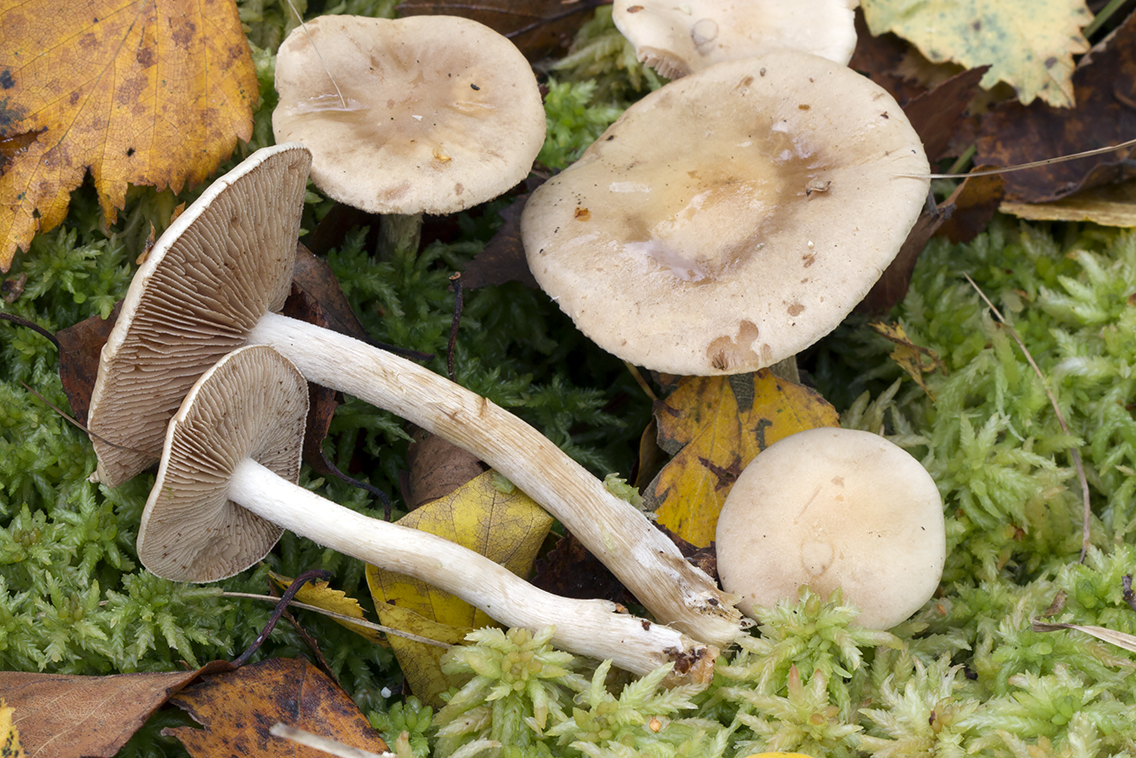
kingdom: Fungi
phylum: Basidiomycota
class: Agaricomycetes
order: Agaricales
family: Hymenogastraceae
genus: Hebeloma
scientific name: Hebeloma leucosarx
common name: Birch poisonpie
